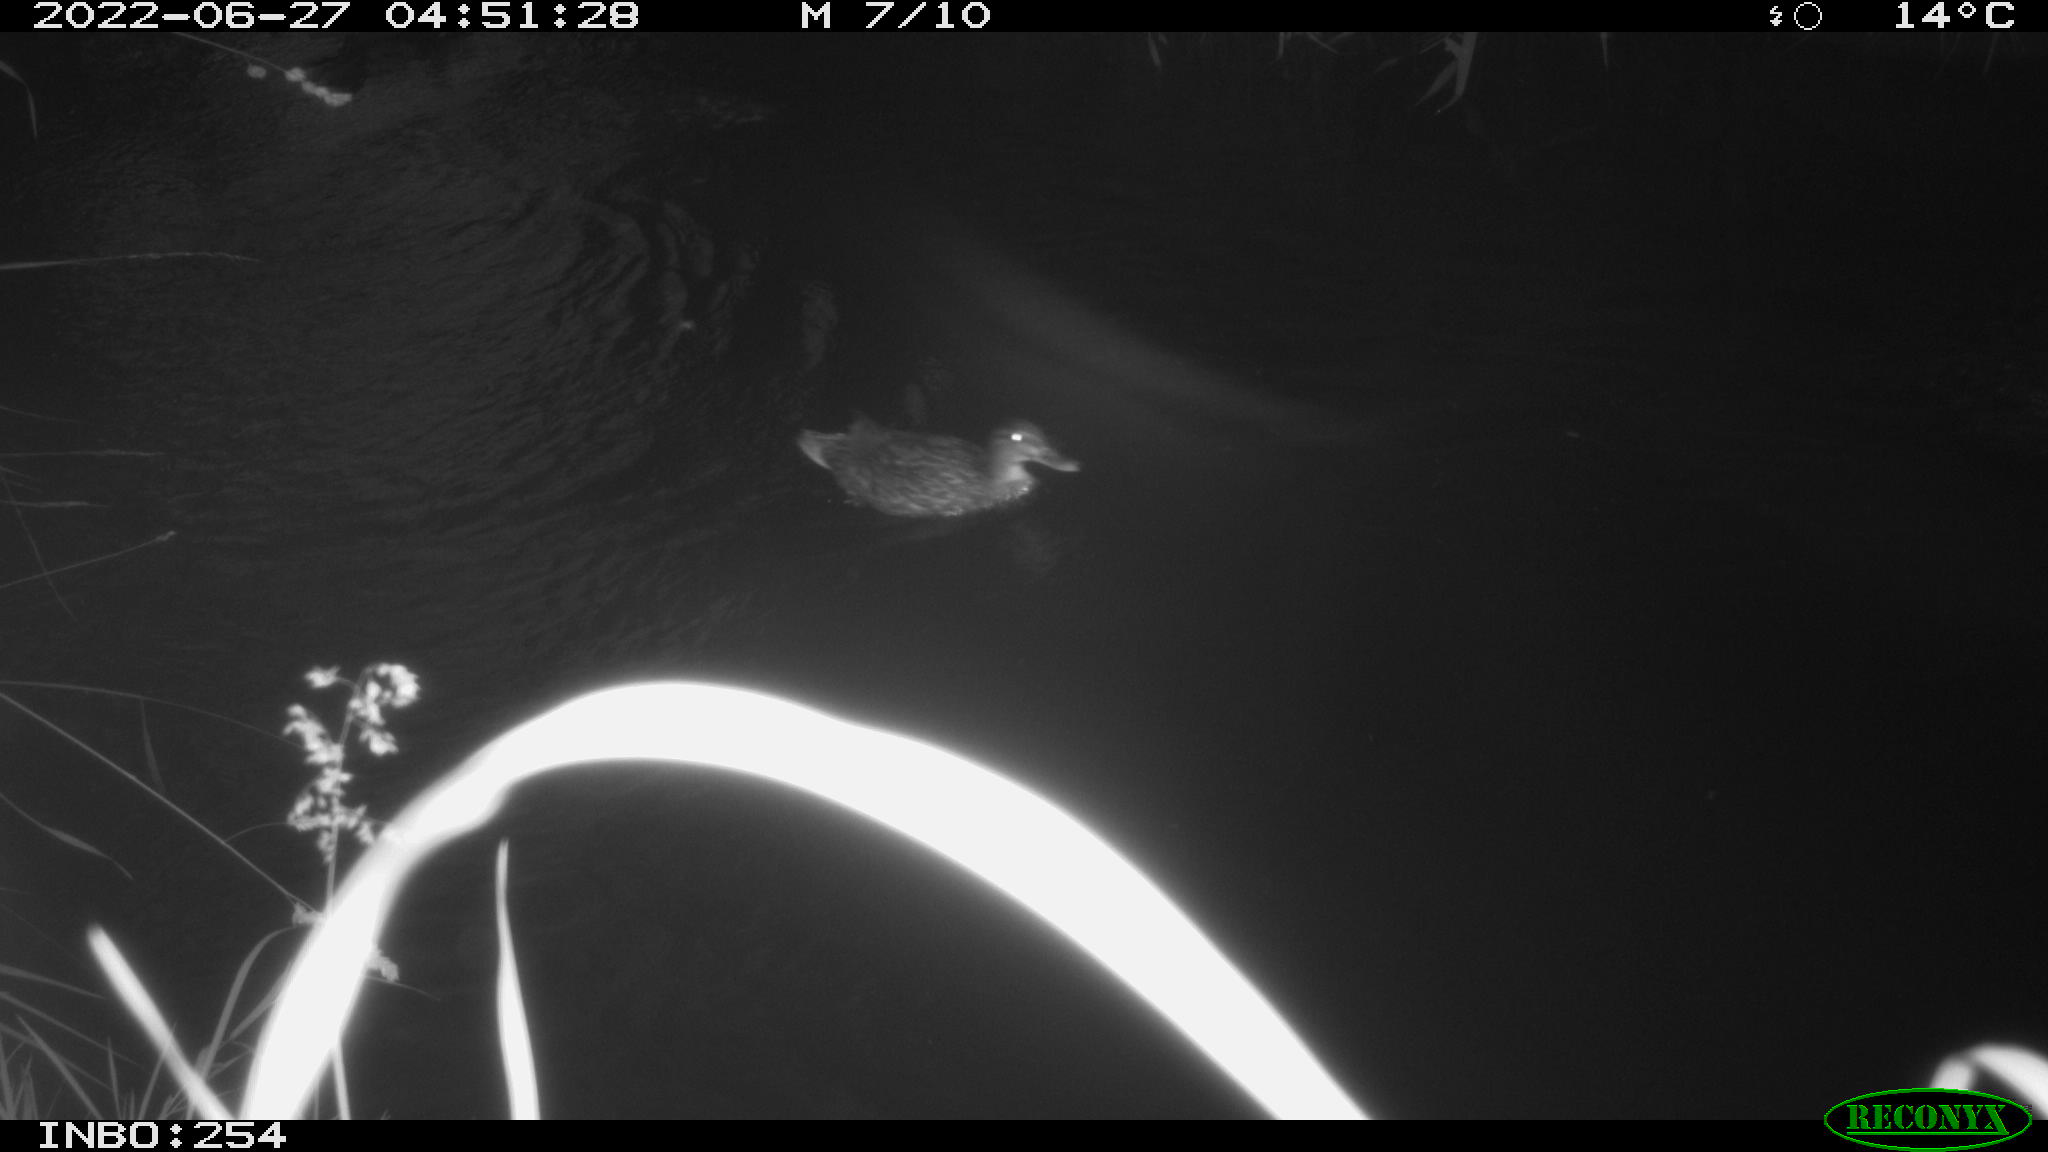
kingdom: Animalia
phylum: Chordata
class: Aves
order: Anseriformes
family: Anatidae
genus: Anas
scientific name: Anas platyrhynchos
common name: Mallard
